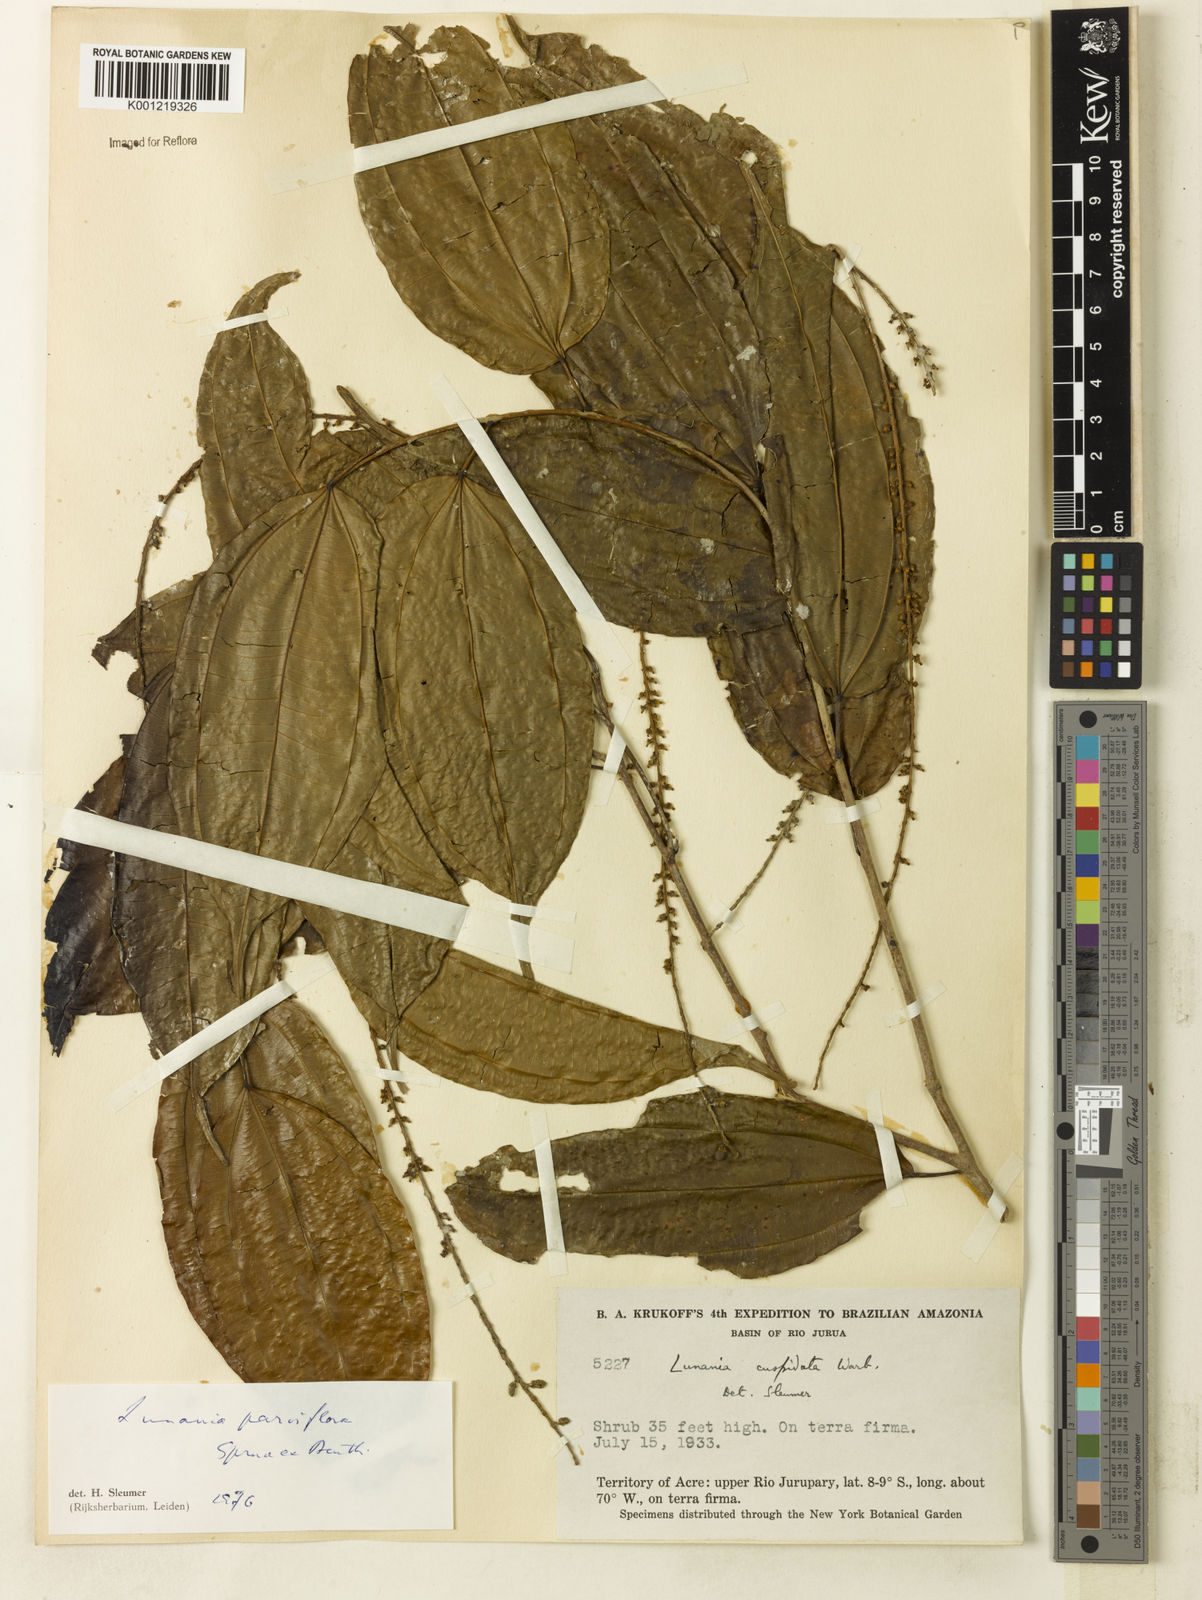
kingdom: Plantae
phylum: Tracheophyta
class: Magnoliopsida
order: Malpighiales
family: Salicaceae
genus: Lunania
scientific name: Lunania parviflora
